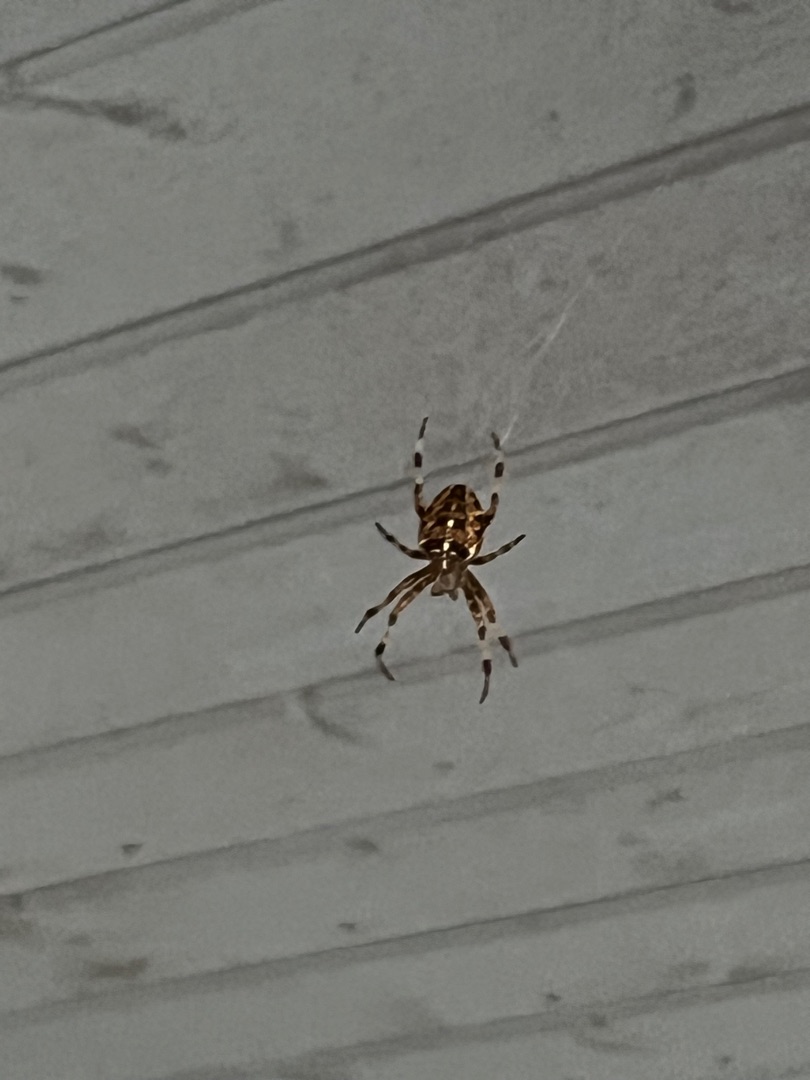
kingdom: Animalia
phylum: Arthropoda
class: Arachnida
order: Araneae
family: Araneidae
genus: Araneus
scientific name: Araneus diadematus
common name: Korsedderkop
